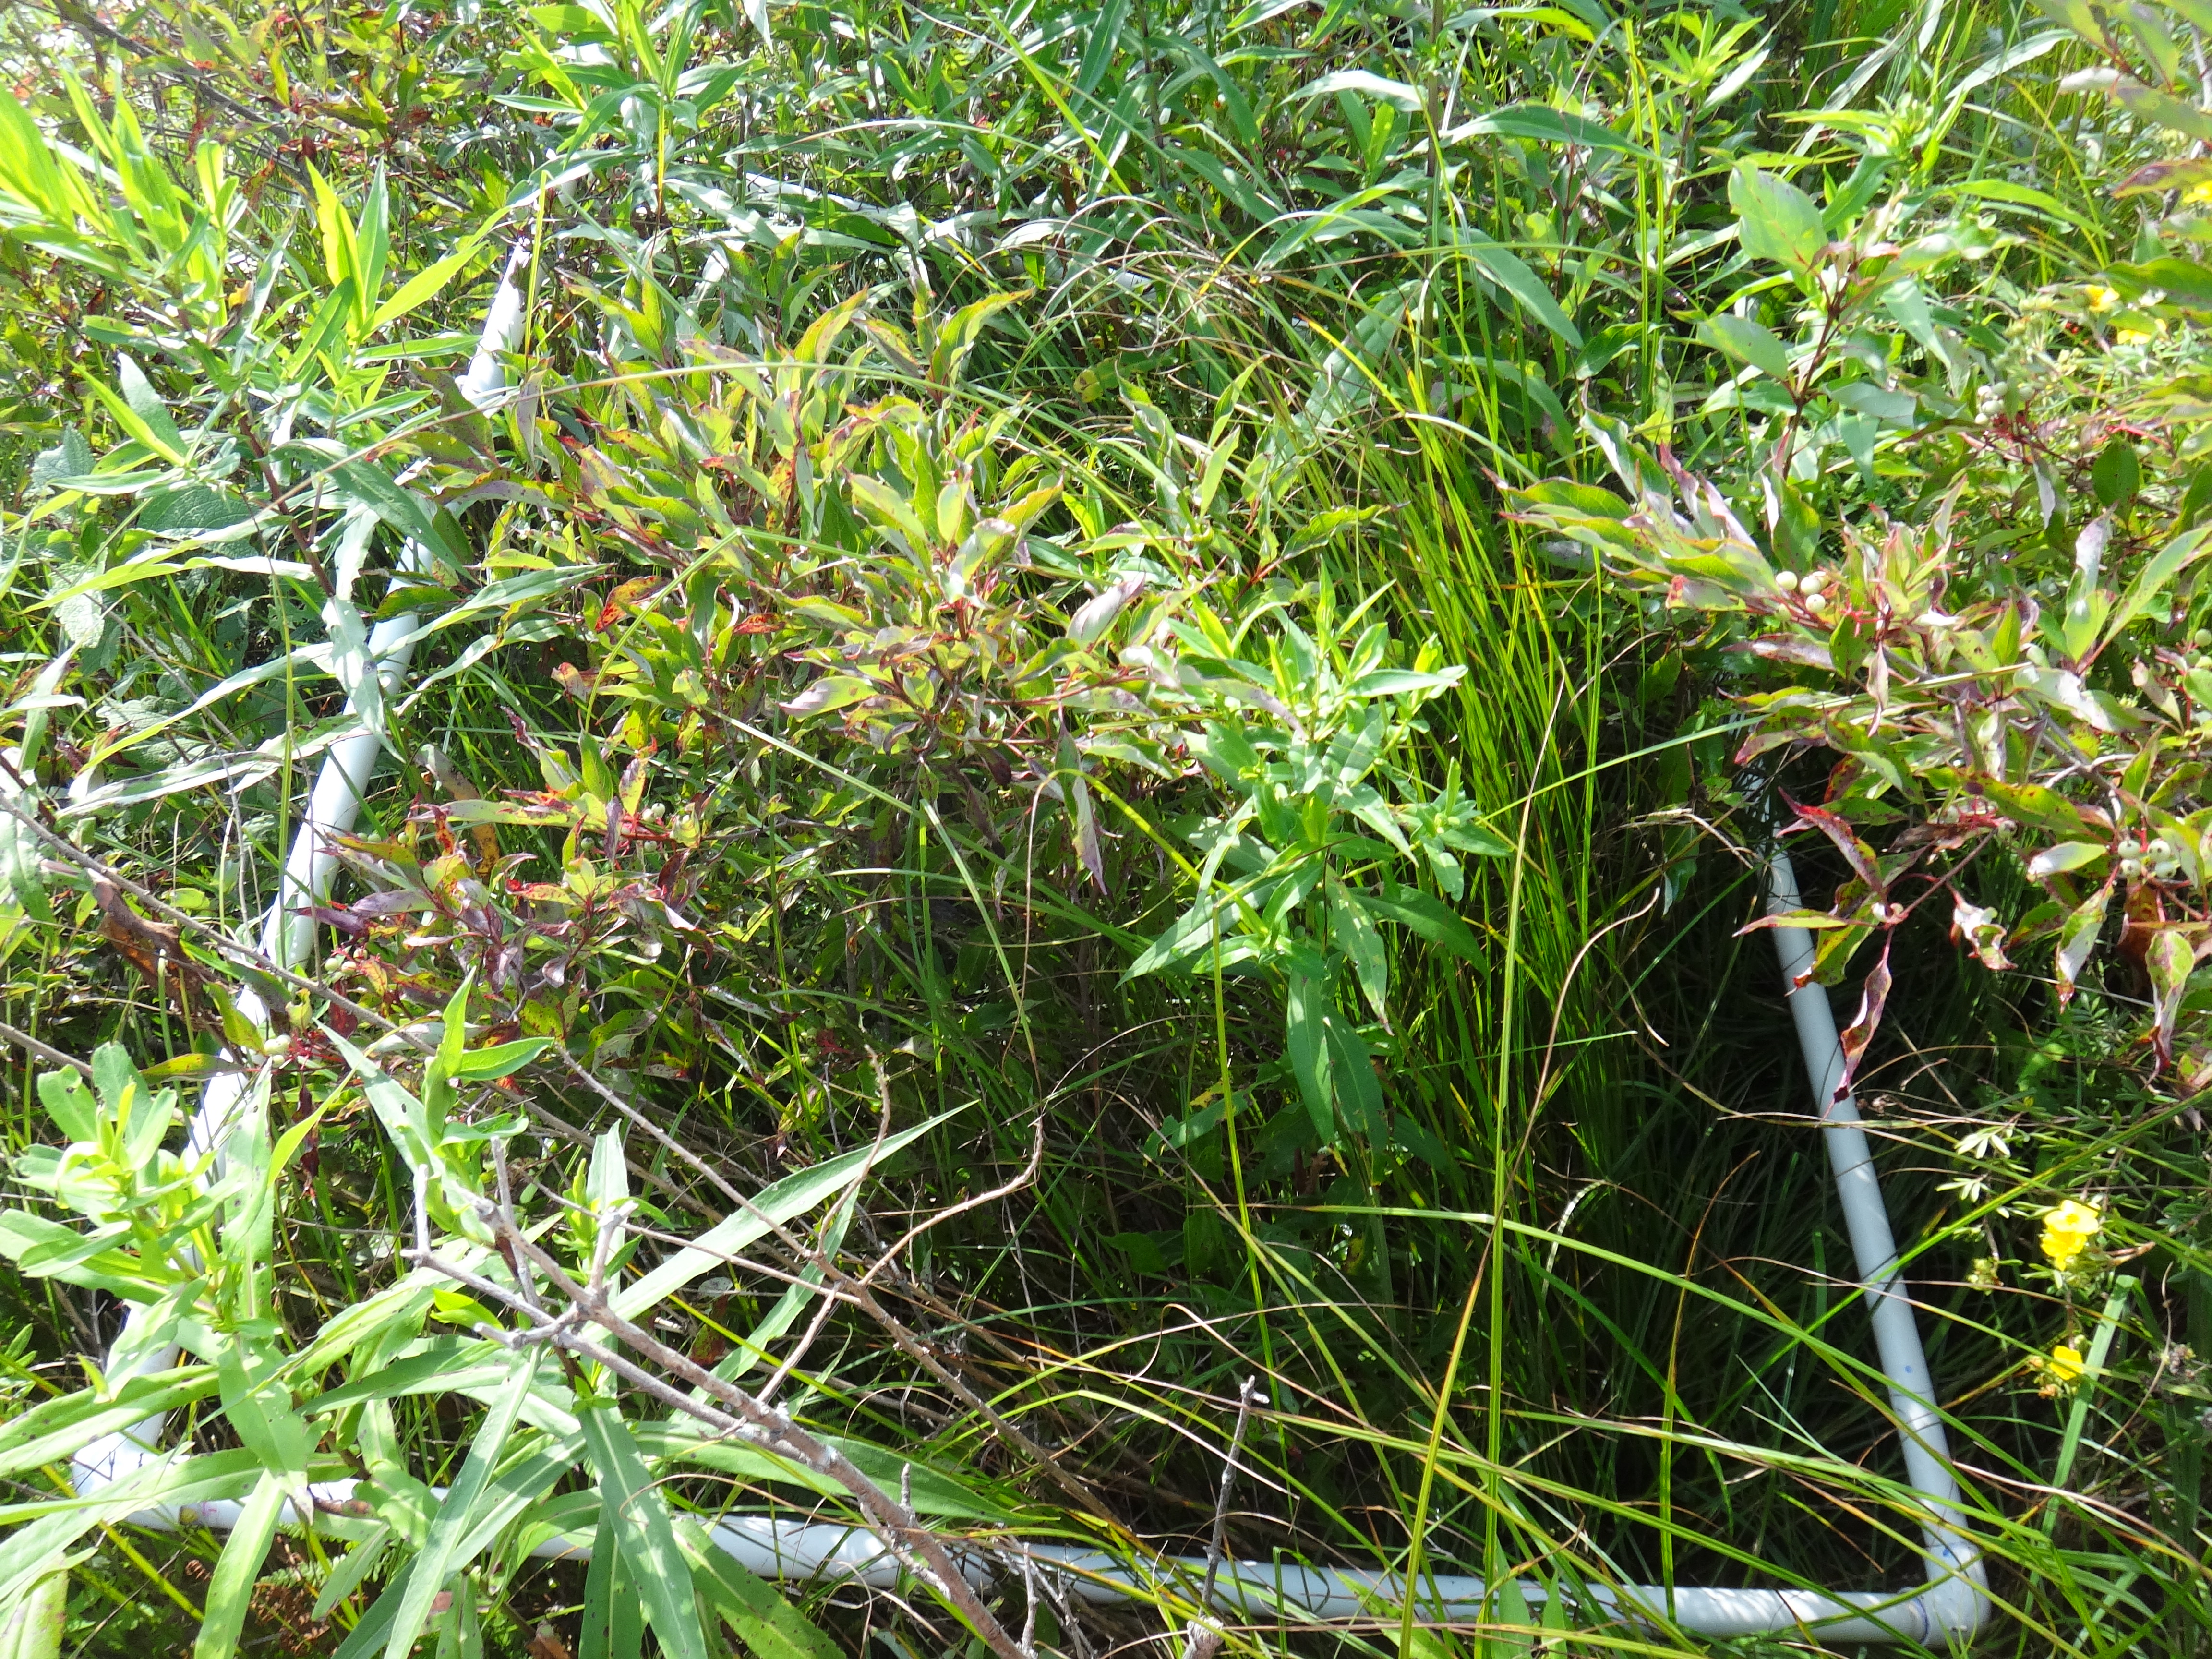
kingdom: Plantae
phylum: Tracheophyta
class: Liliopsida
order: Poales
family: Cyperaceae
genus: Carex
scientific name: Carex stricta
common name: Hummock sedge
